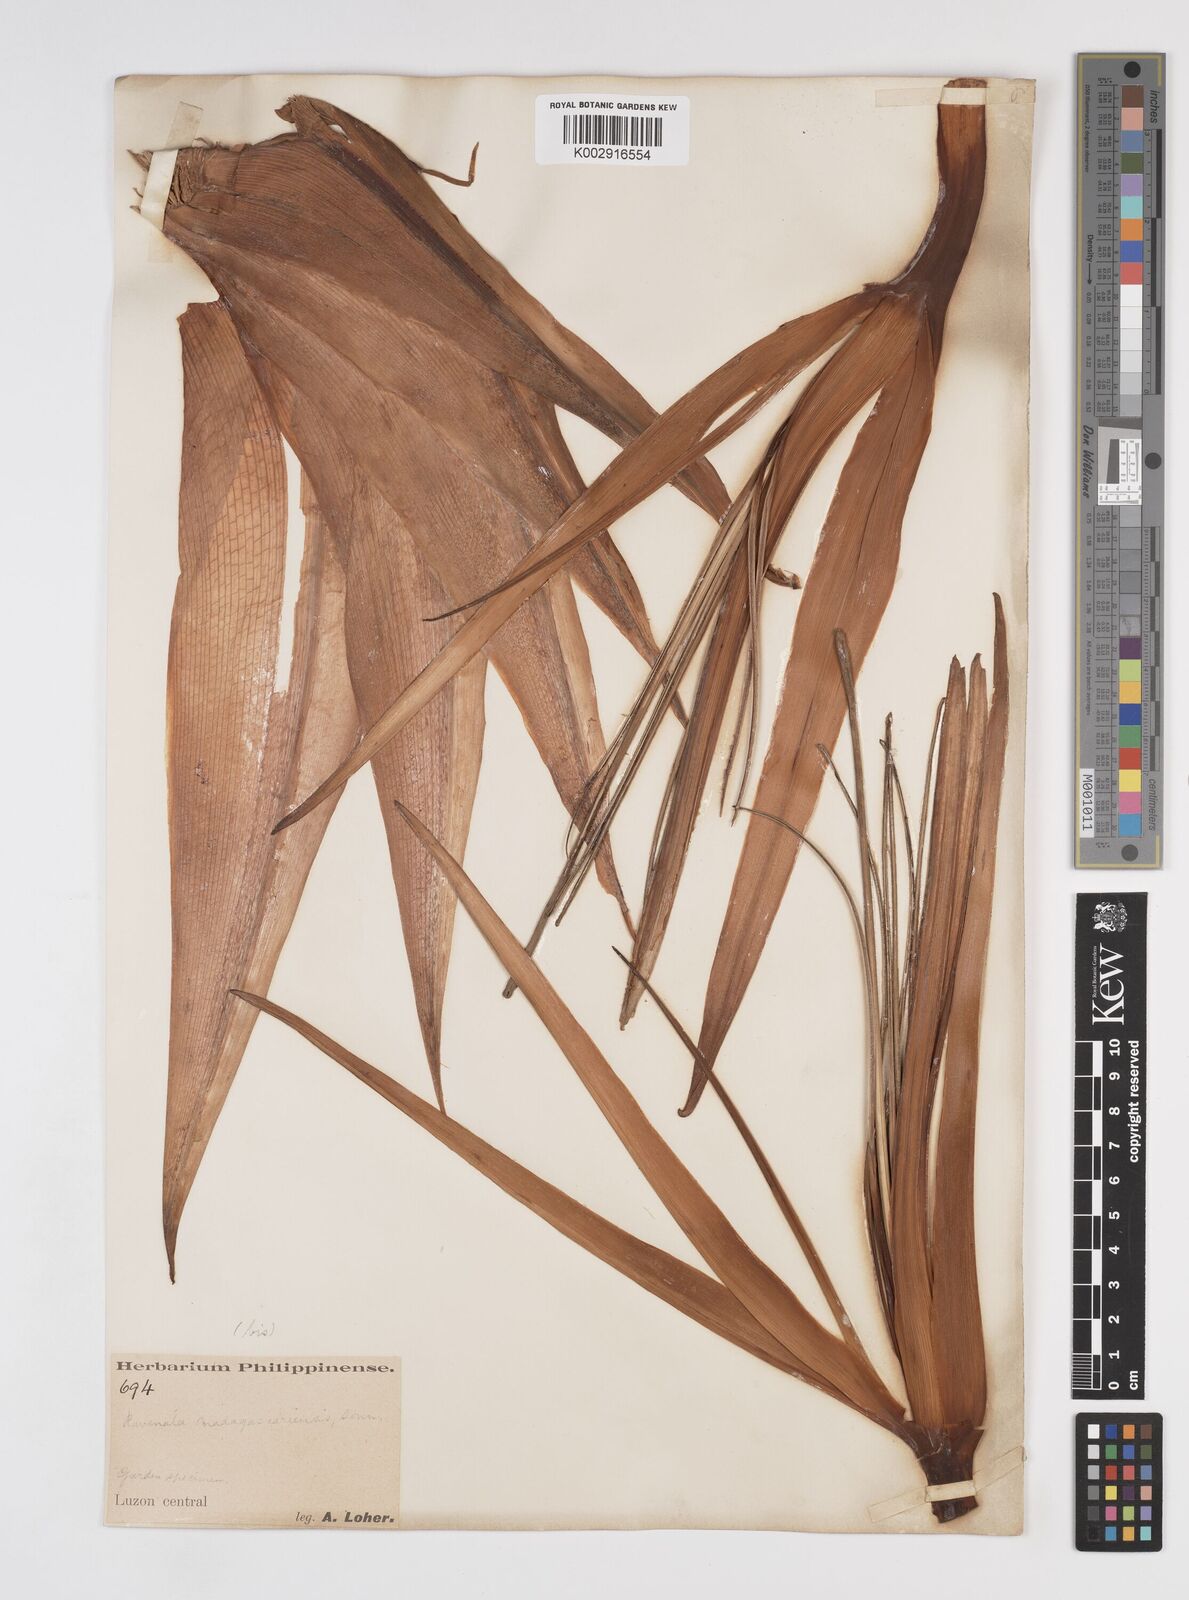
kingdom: Plantae
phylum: Tracheophyta
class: Liliopsida
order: Zingiberales
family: Strelitziaceae
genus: Ravenala
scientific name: Ravenala
